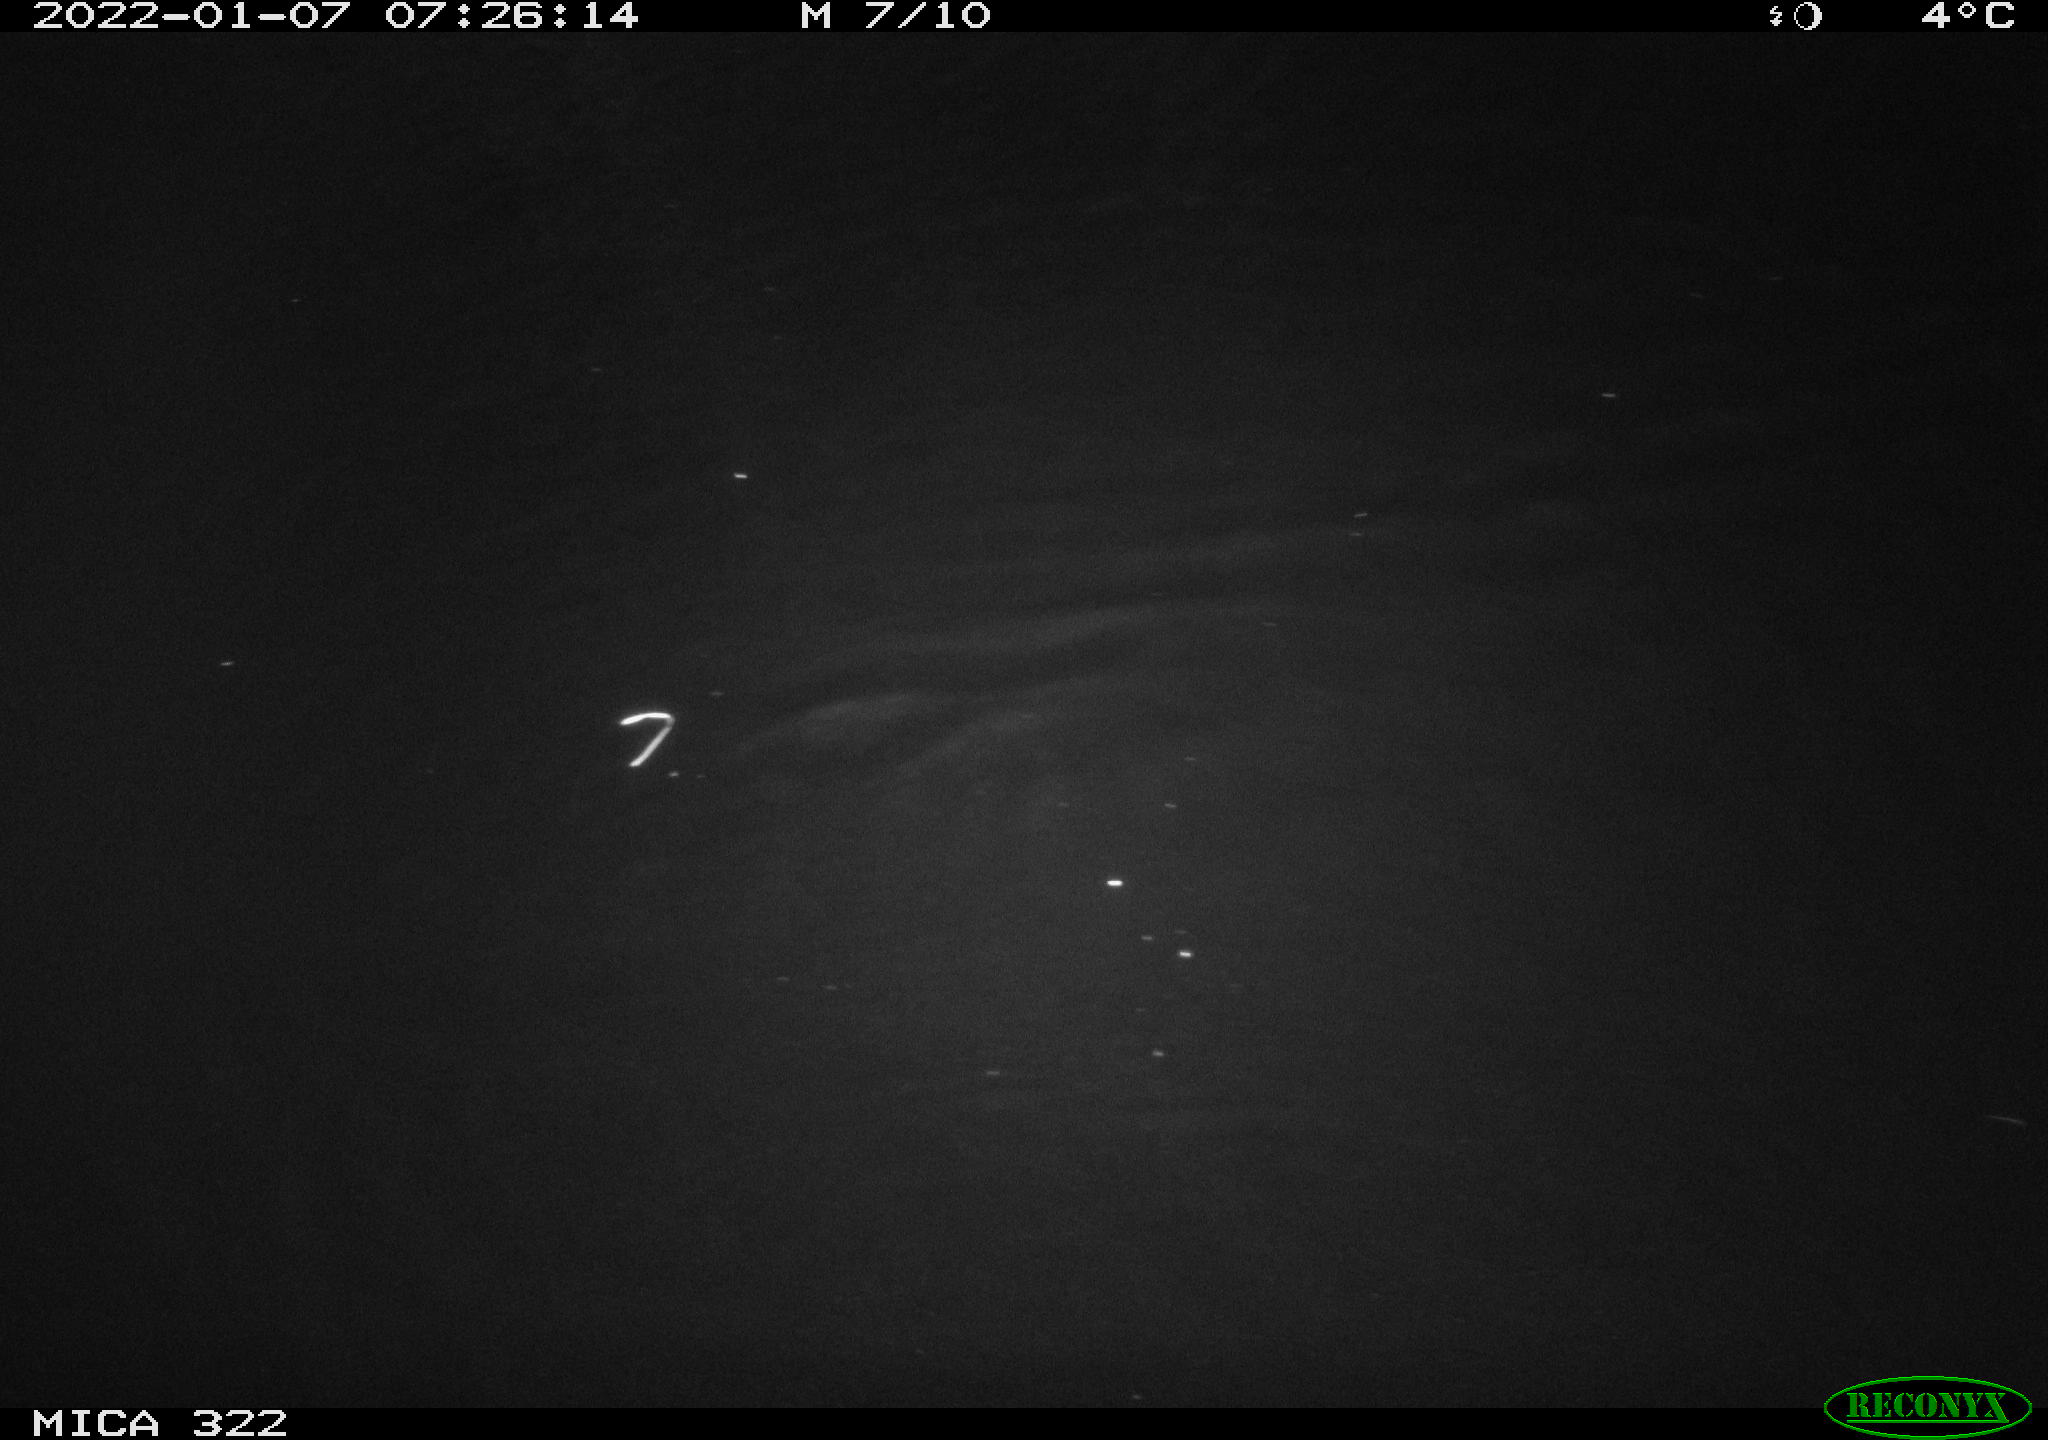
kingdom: Animalia
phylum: Chordata
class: Mammalia
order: Rodentia
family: Muridae
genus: Rattus
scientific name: Rattus norvegicus
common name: Brown rat
